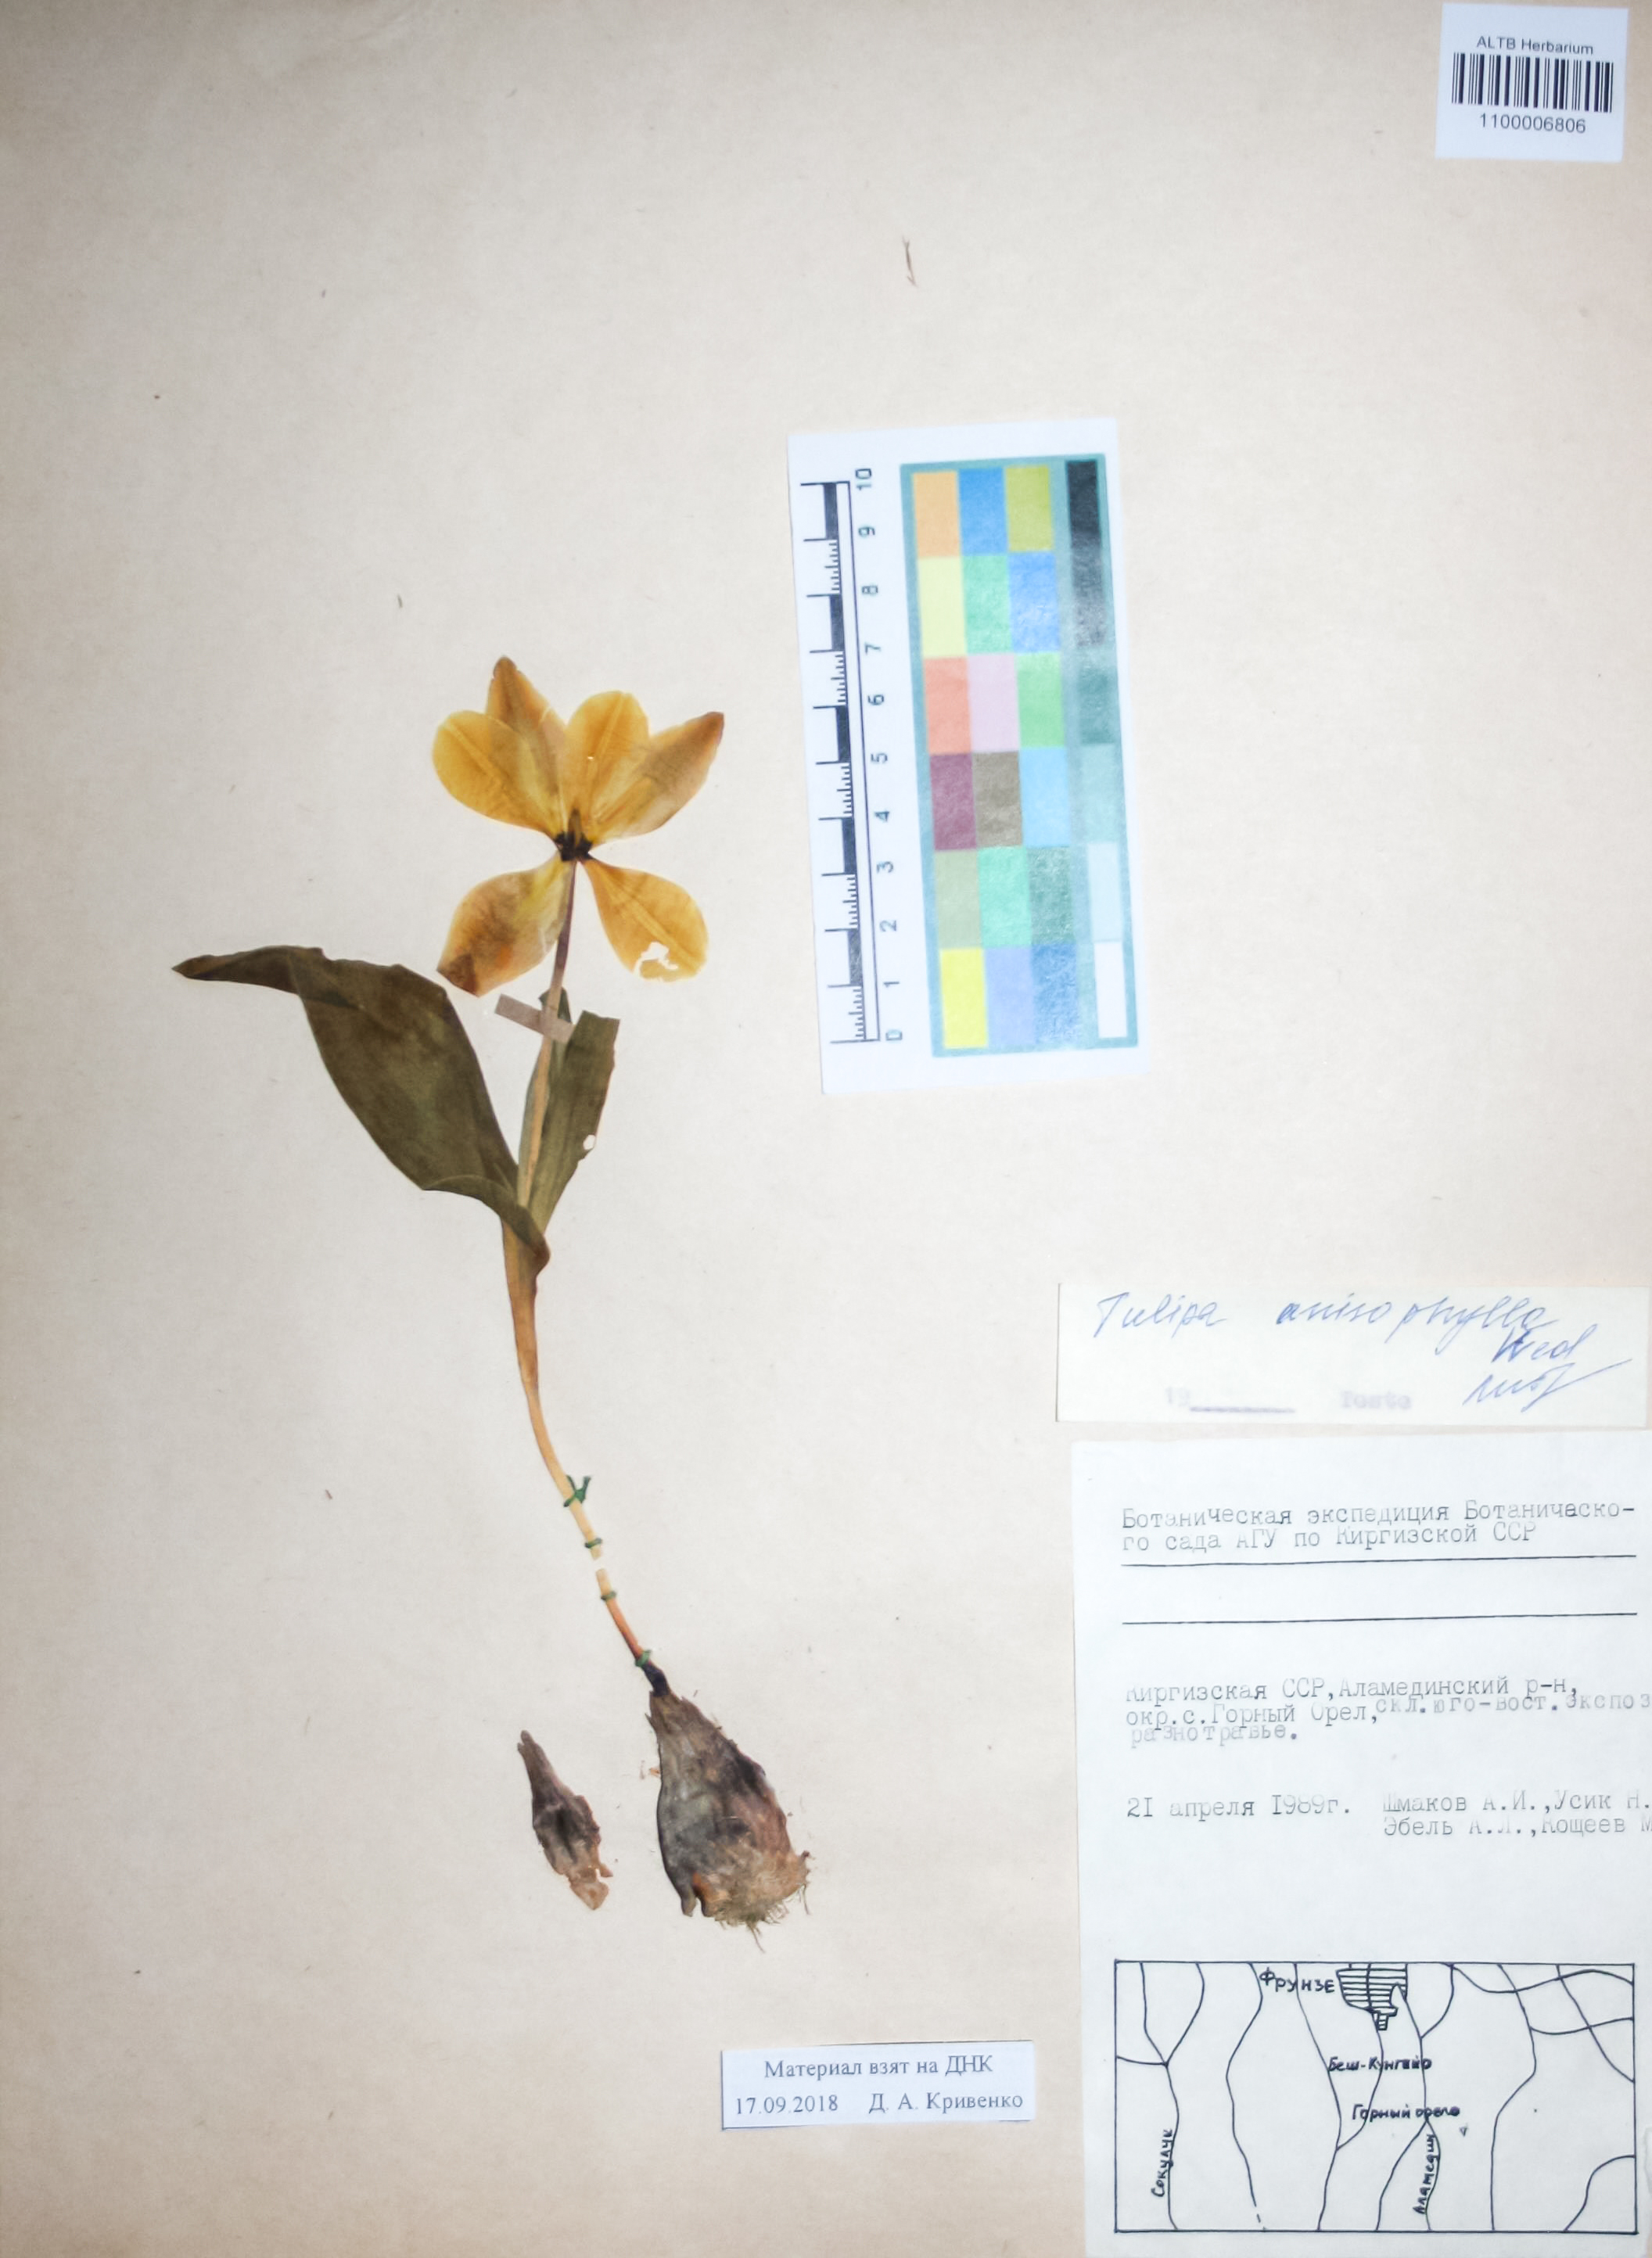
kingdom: Plantae
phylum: Tracheophyta
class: Liliopsida
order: Liliales
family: Liliaceae
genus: Tulipa
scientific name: Tulipa anisophylla
